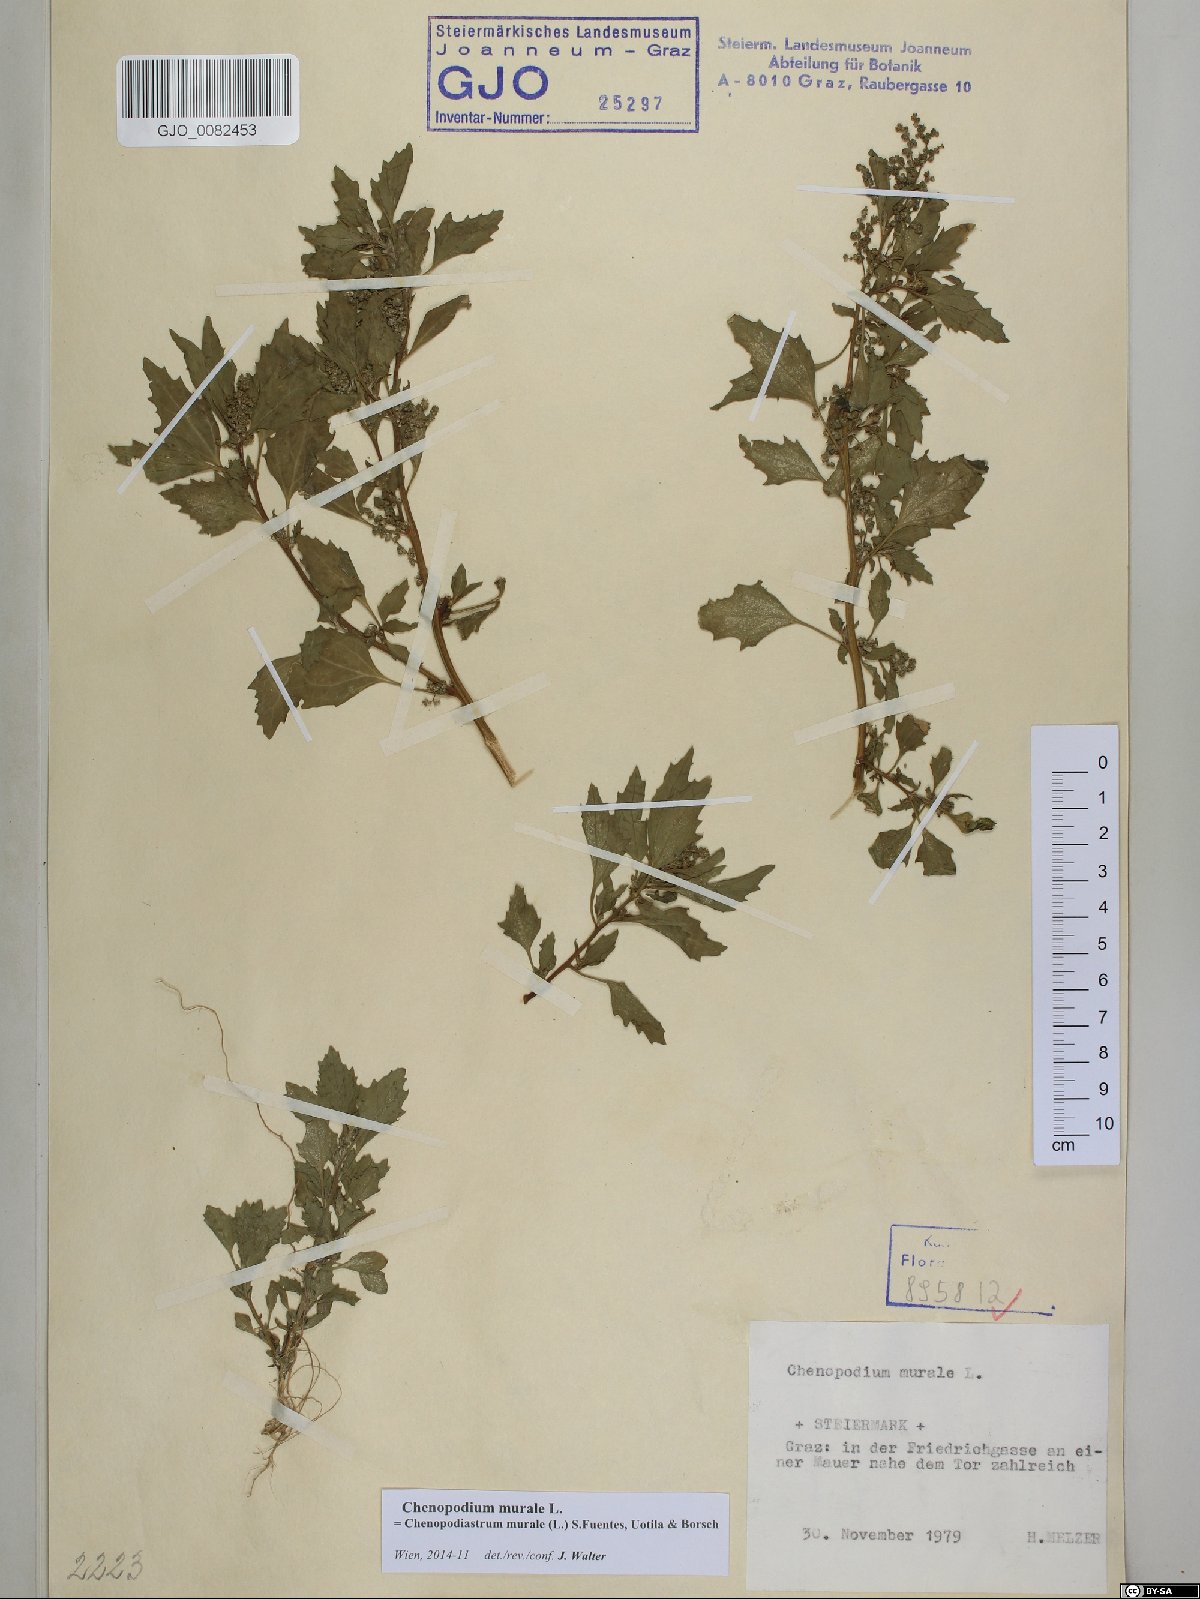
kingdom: Plantae
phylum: Tracheophyta
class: Magnoliopsida
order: Caryophyllales
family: Amaranthaceae
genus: Chenopodiastrum
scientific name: Chenopodiastrum murale
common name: Sowbane
